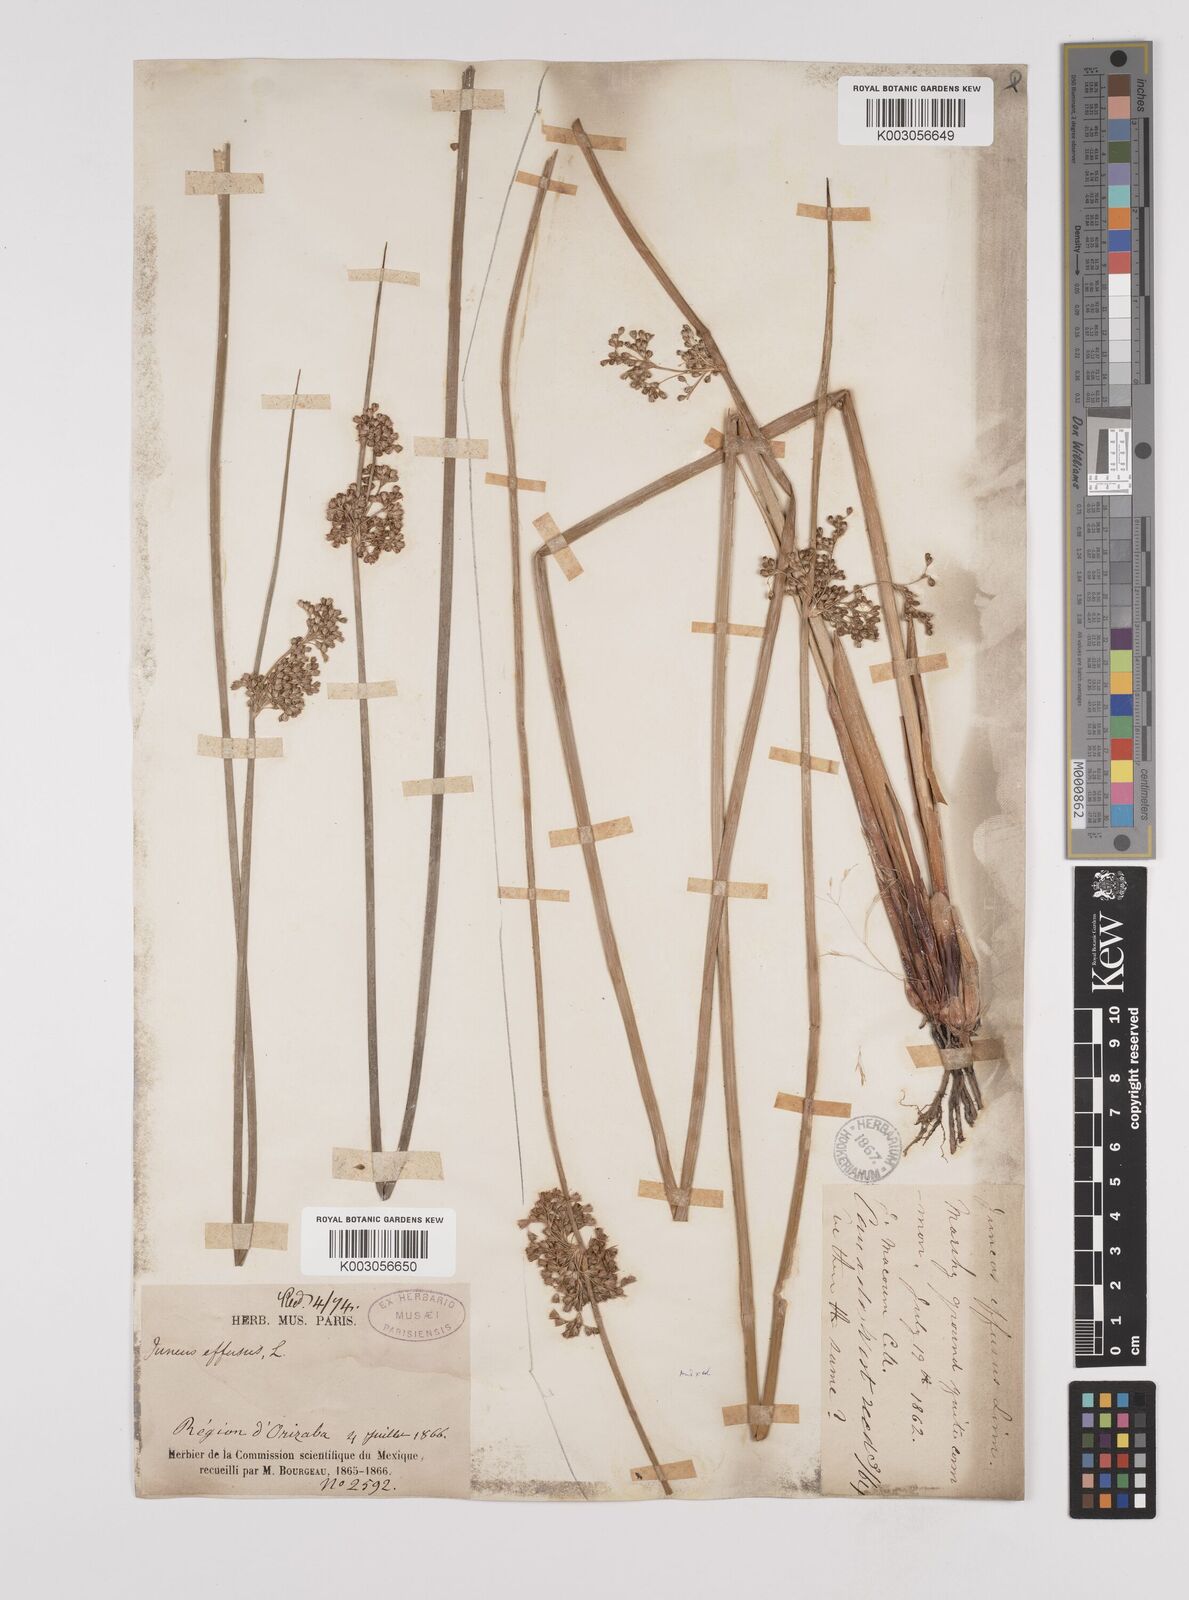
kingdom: Plantae
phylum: Tracheophyta
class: Liliopsida
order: Poales
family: Juncaceae
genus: Juncus
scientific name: Juncus effusus
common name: Soft rush
